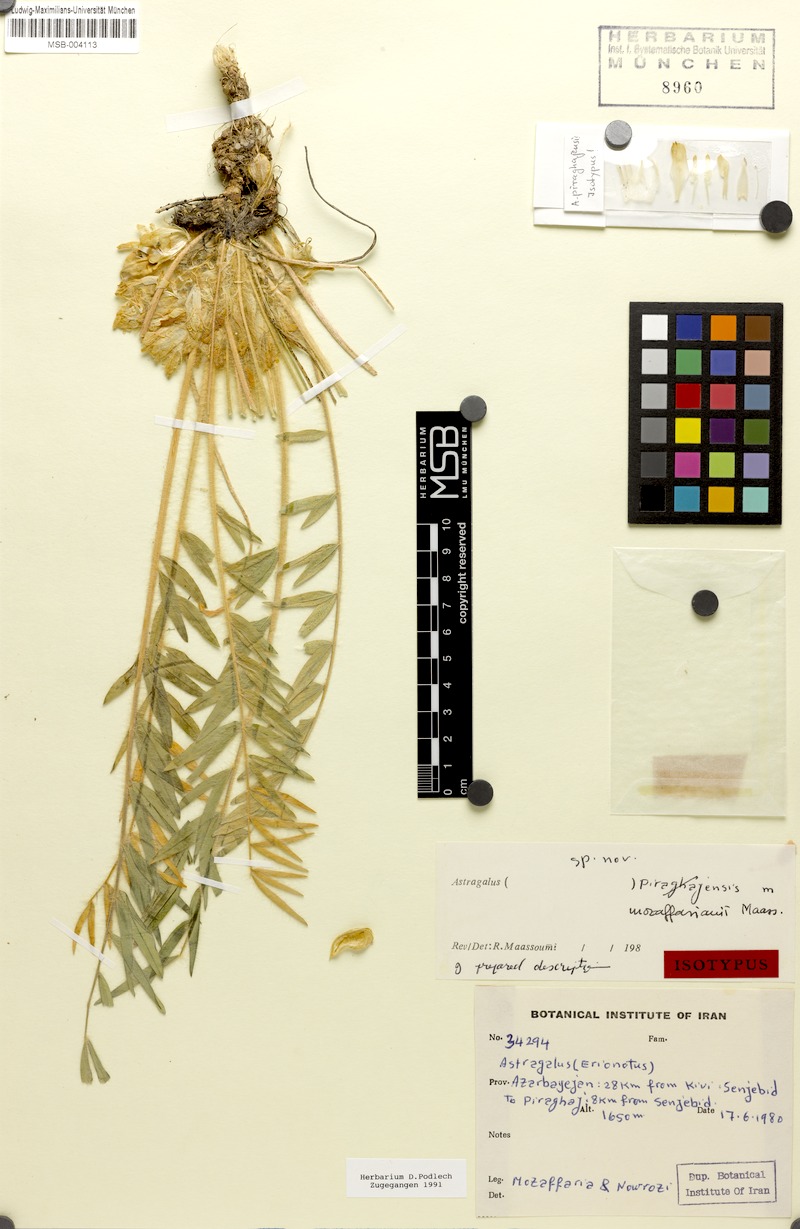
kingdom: Plantae
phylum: Tracheophyta
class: Magnoliopsida
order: Fabales
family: Fabaceae
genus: Astragalus
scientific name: Astragalus mozaffarianii
